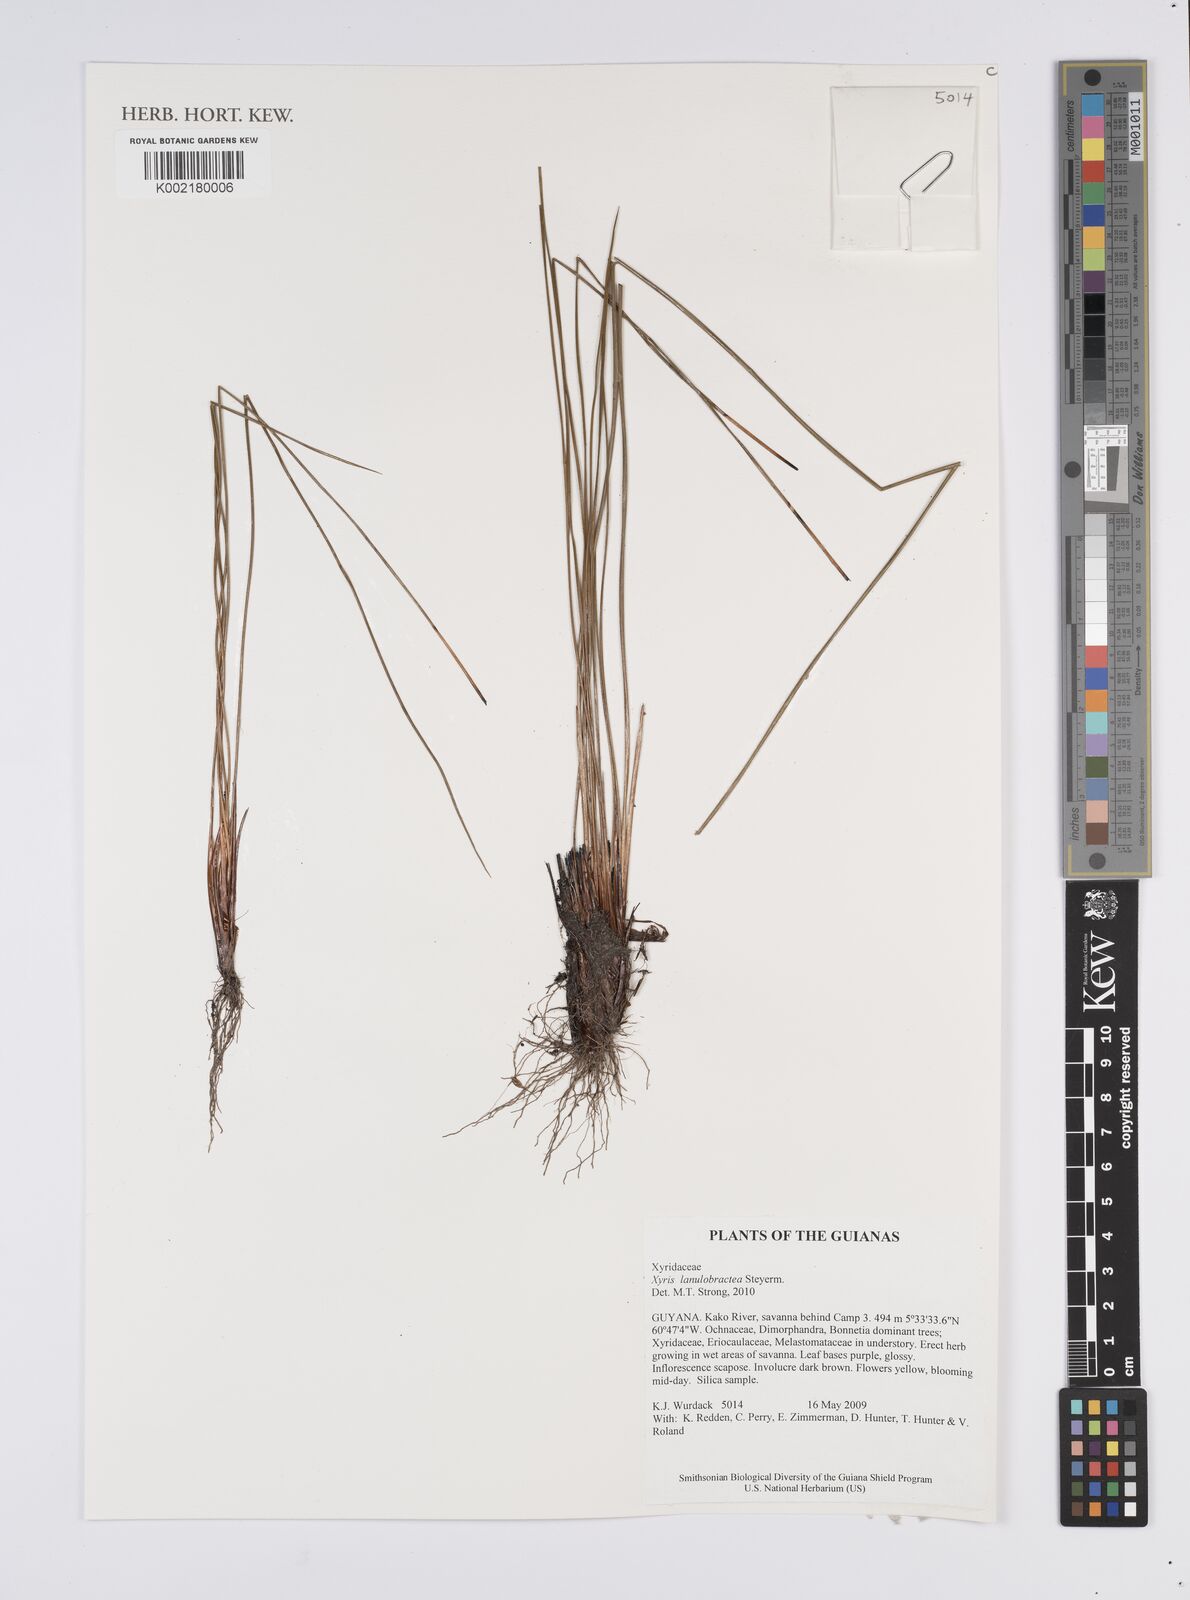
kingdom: Plantae
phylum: Tracheophyta
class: Liliopsida
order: Poales
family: Xyridaceae
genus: Xyris
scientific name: Xyris lanulobractea
